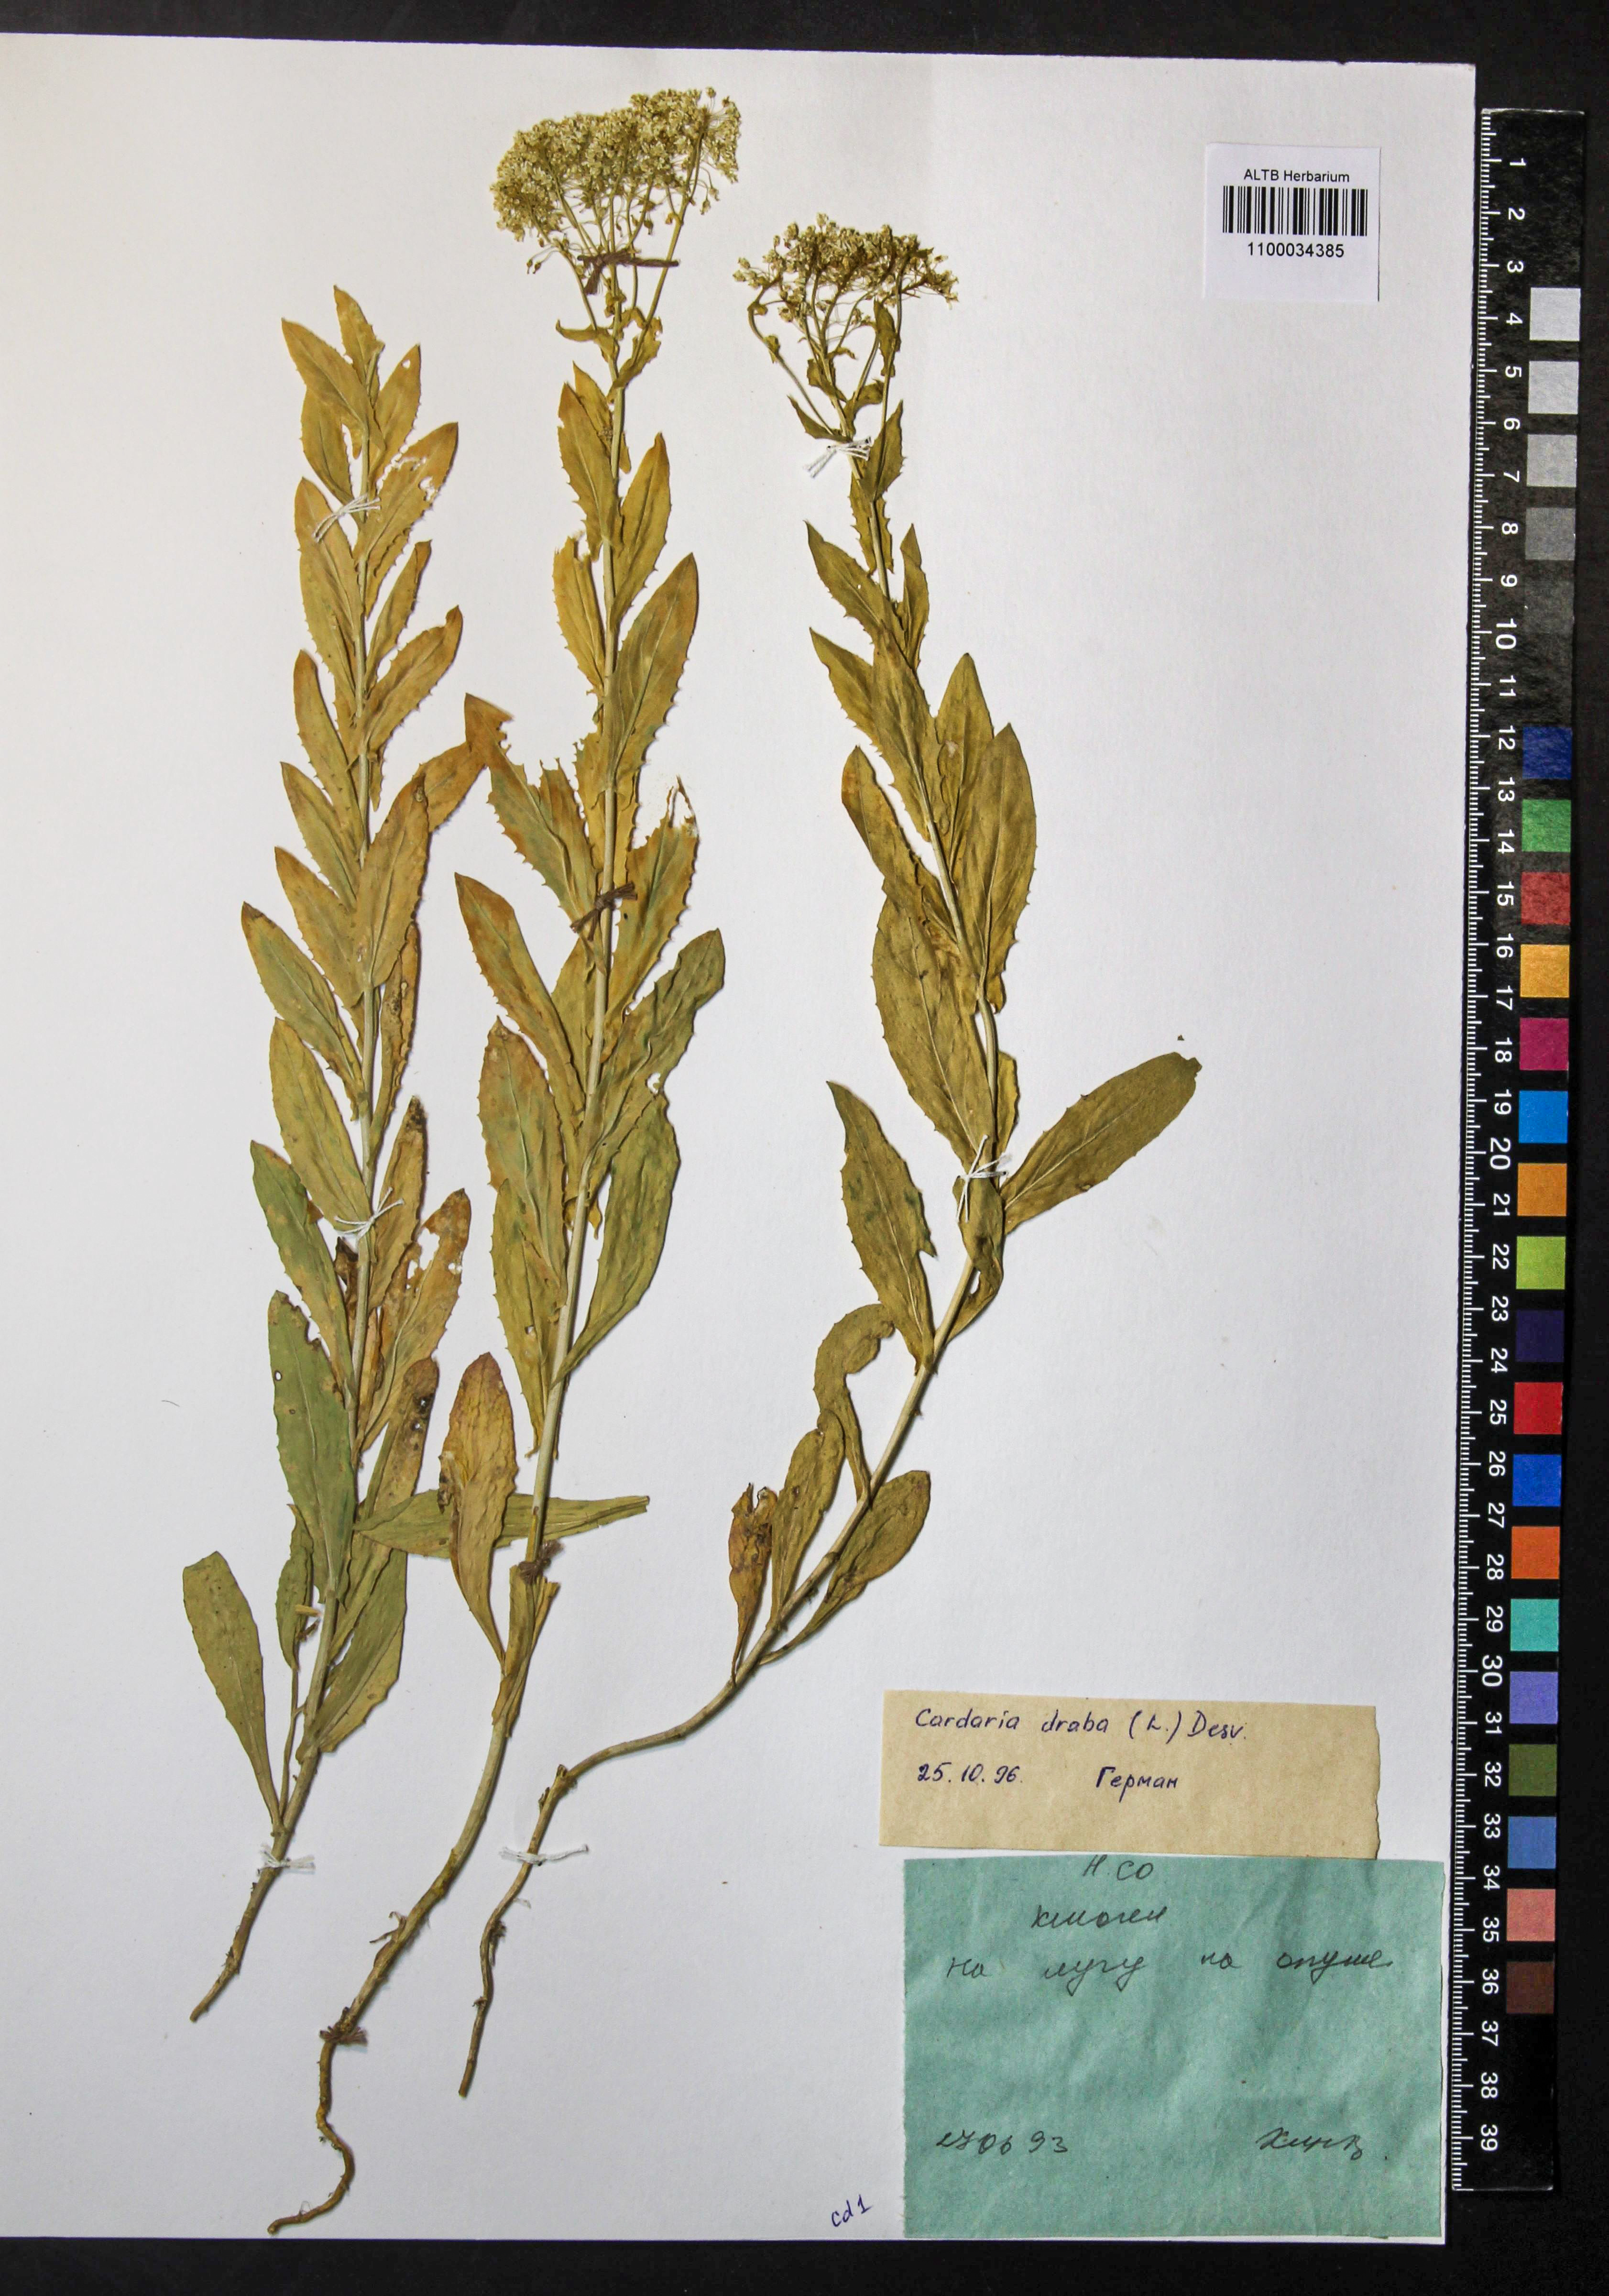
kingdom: Plantae
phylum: Tracheophyta
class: Magnoliopsida
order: Brassicales
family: Brassicaceae
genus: Lepidium
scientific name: Lepidium draba
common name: Hoary cress
